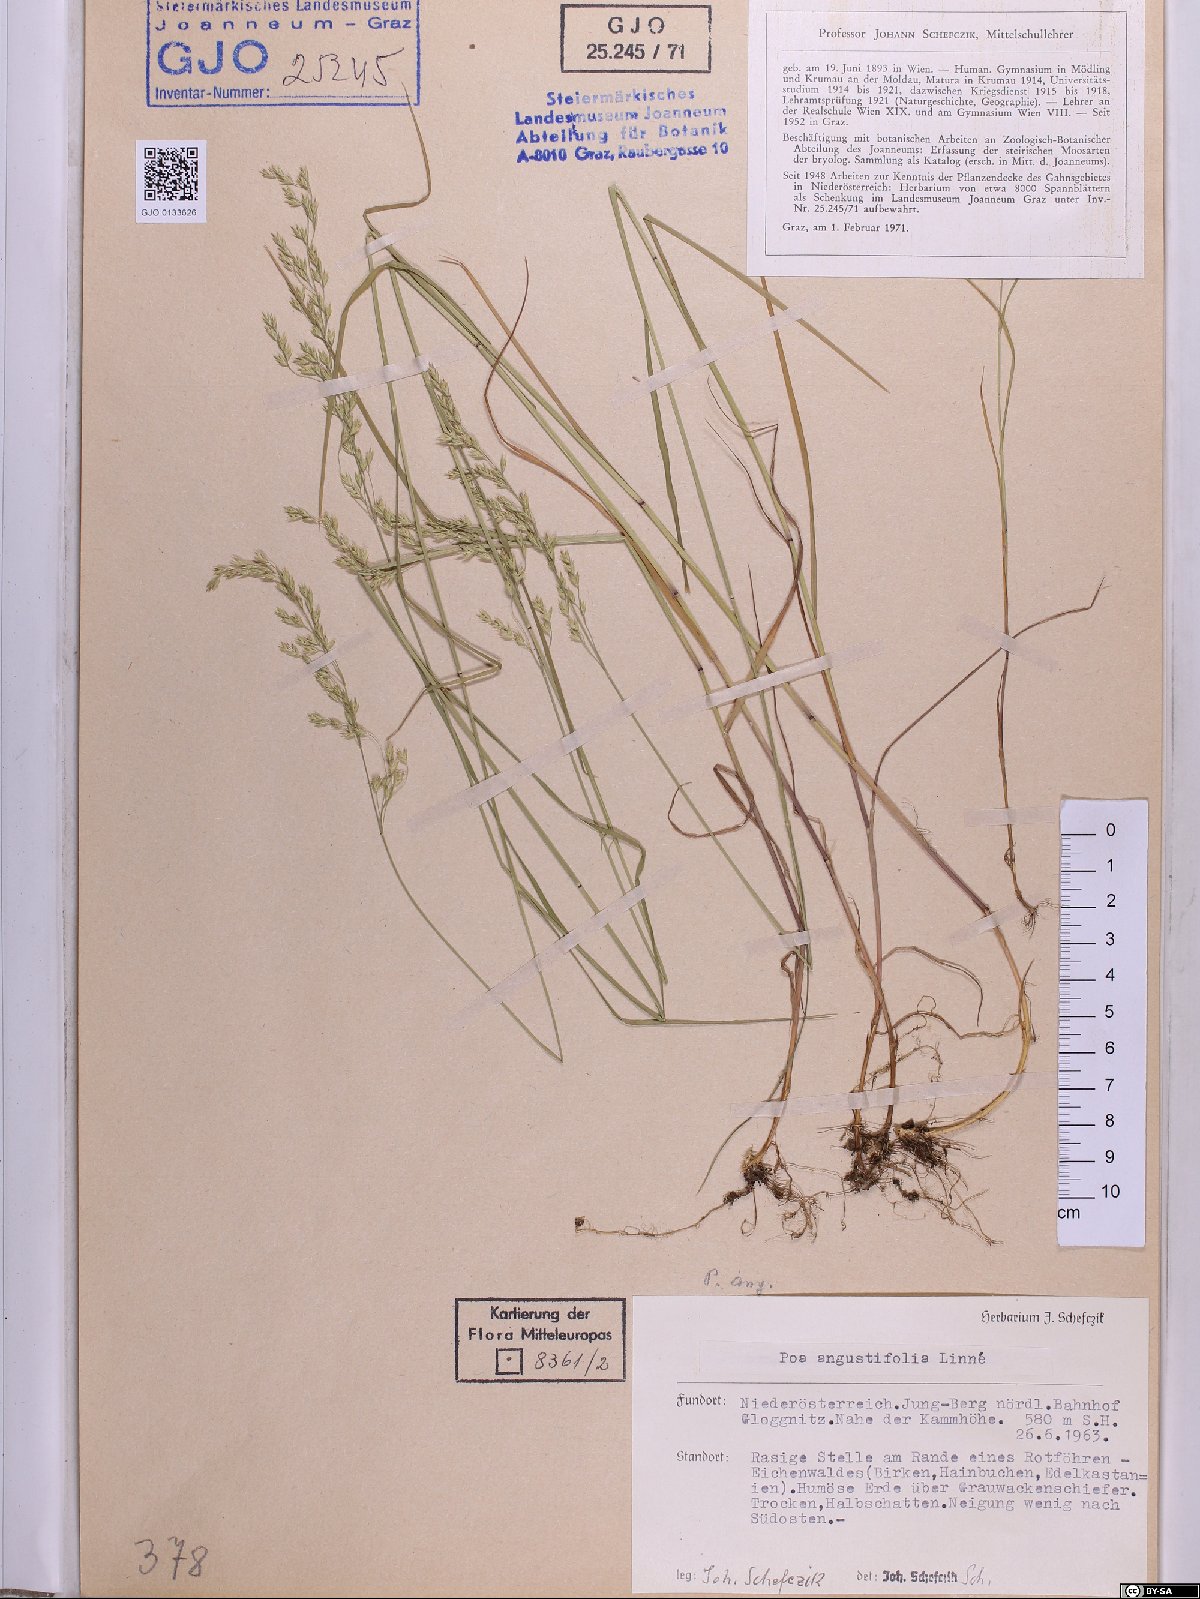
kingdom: Plantae
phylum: Tracheophyta
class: Liliopsida
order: Poales
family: Poaceae
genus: Poa
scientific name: Poa angustifolia
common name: Narrow-leaved meadow-grass
